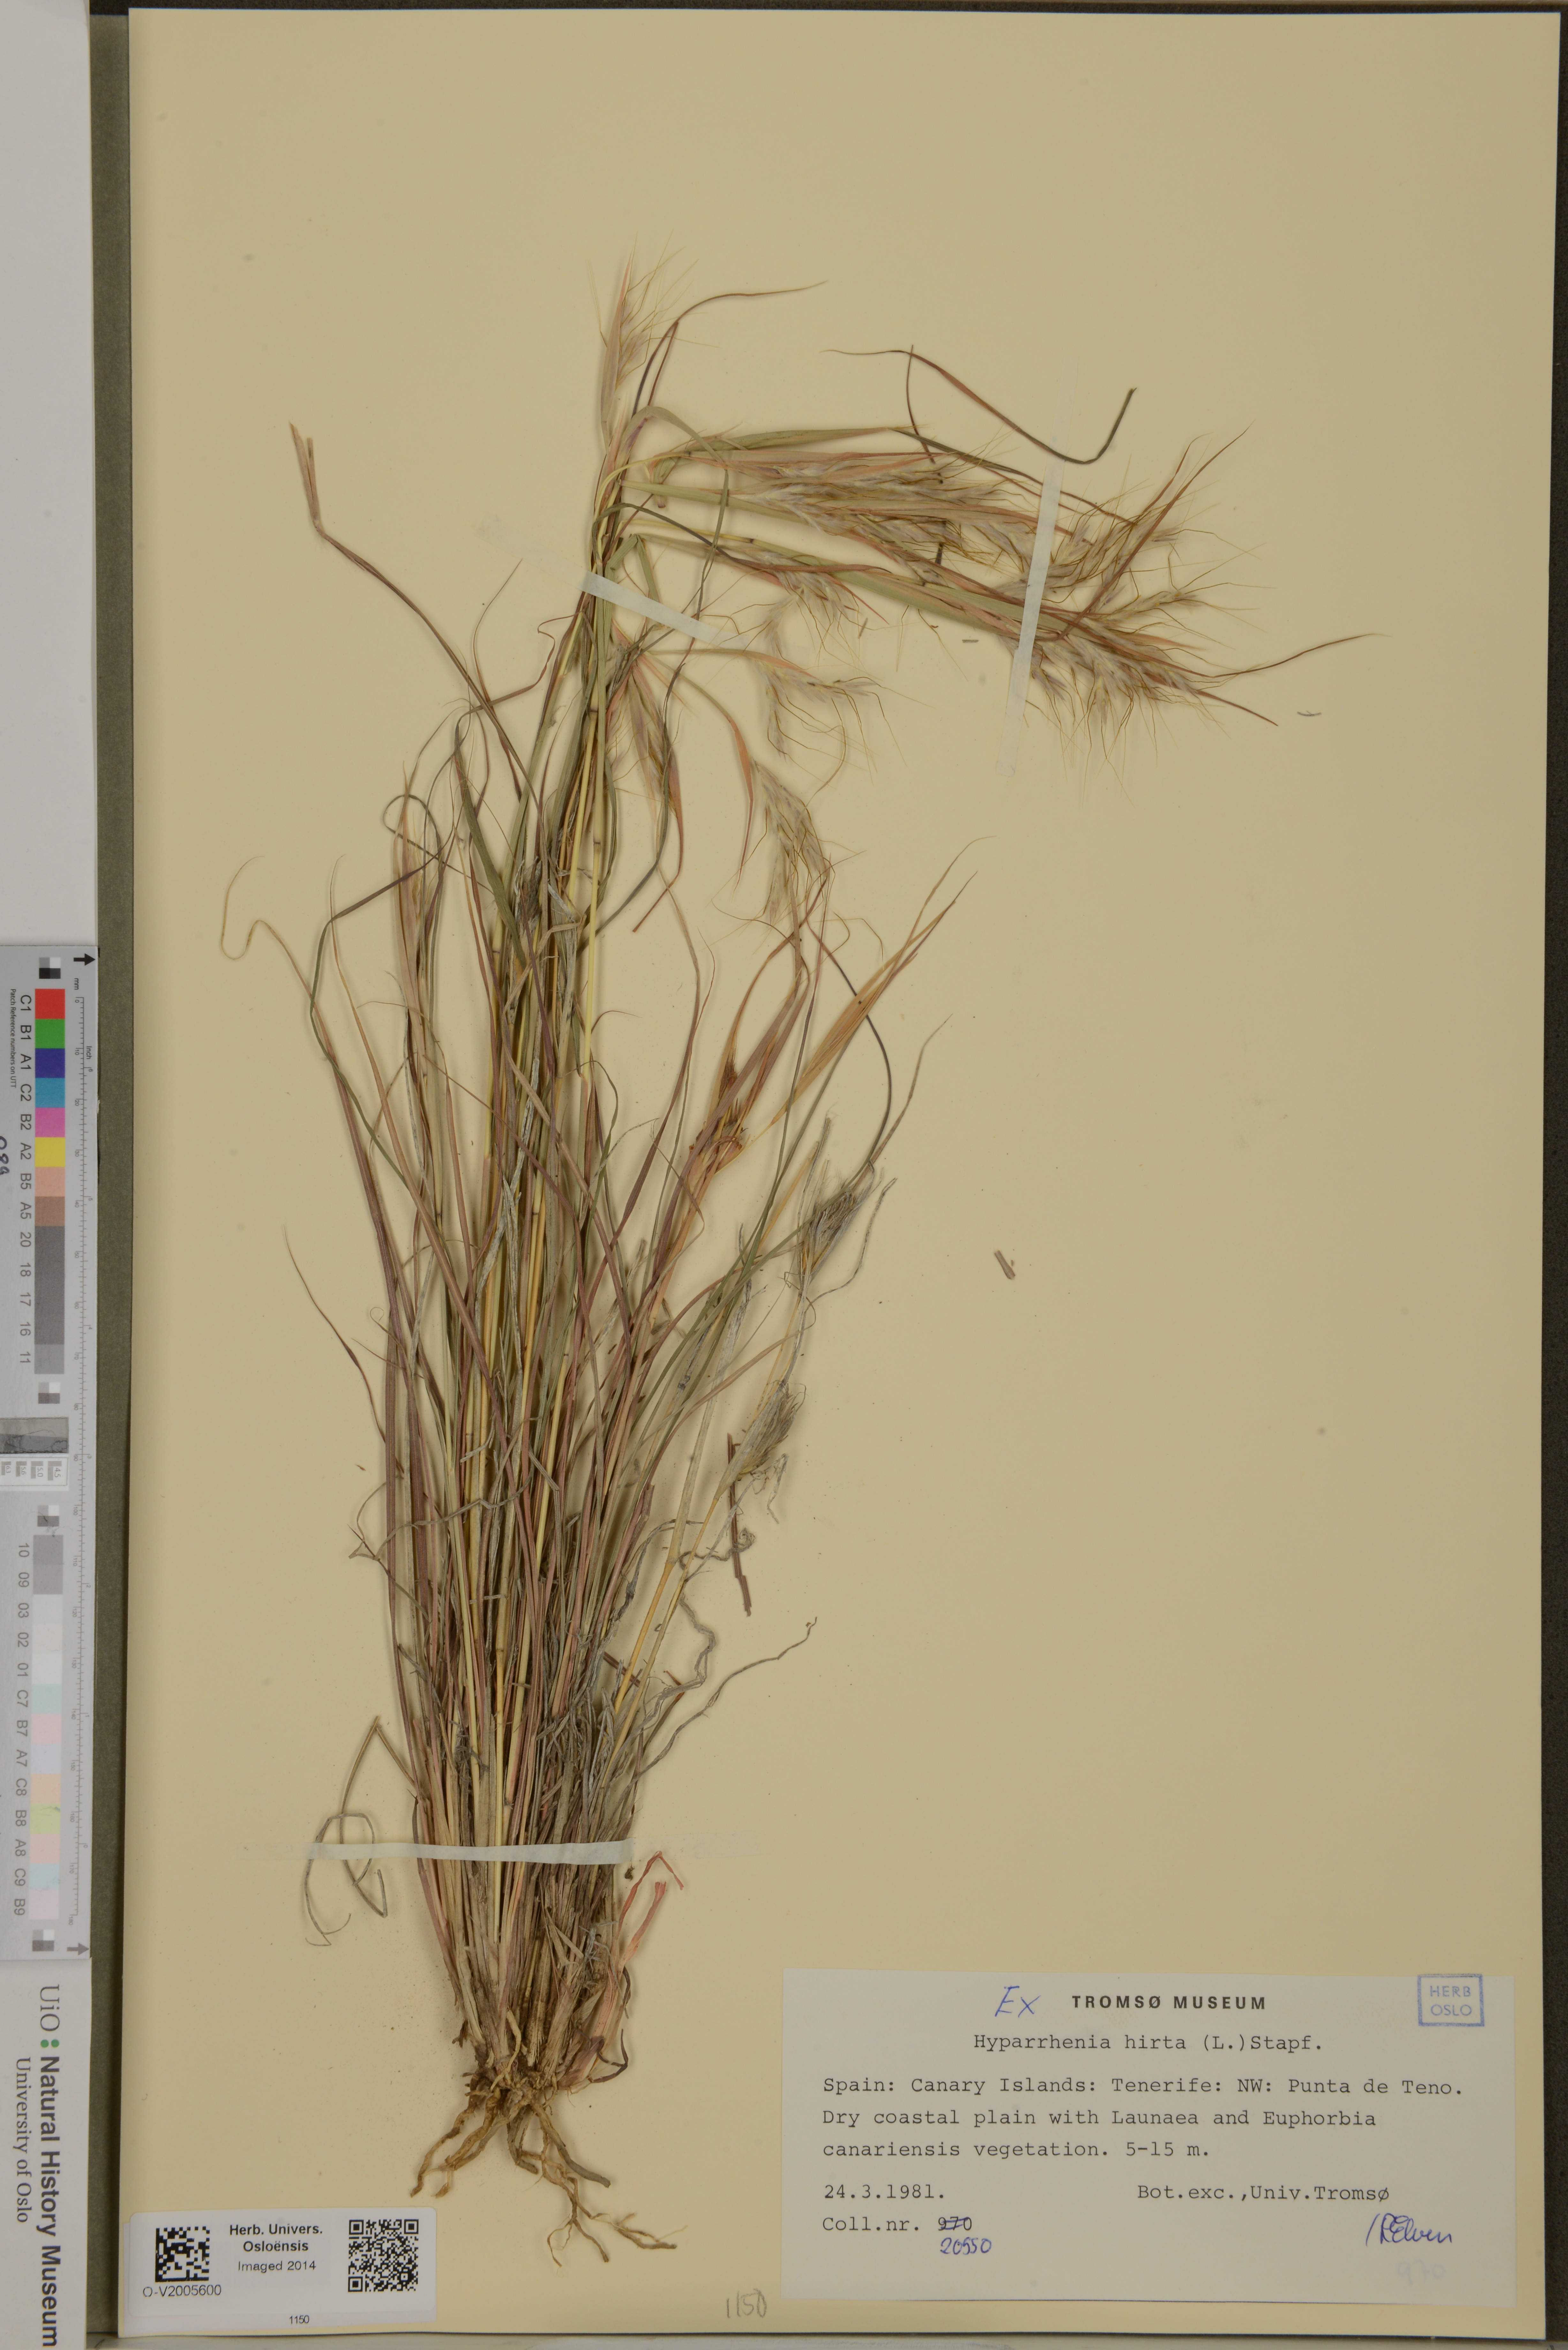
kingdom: Plantae
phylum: Tracheophyta
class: Liliopsida
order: Poales
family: Poaceae
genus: Hyparrhenia
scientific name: Hyparrhenia hirta
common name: Thatching grass
